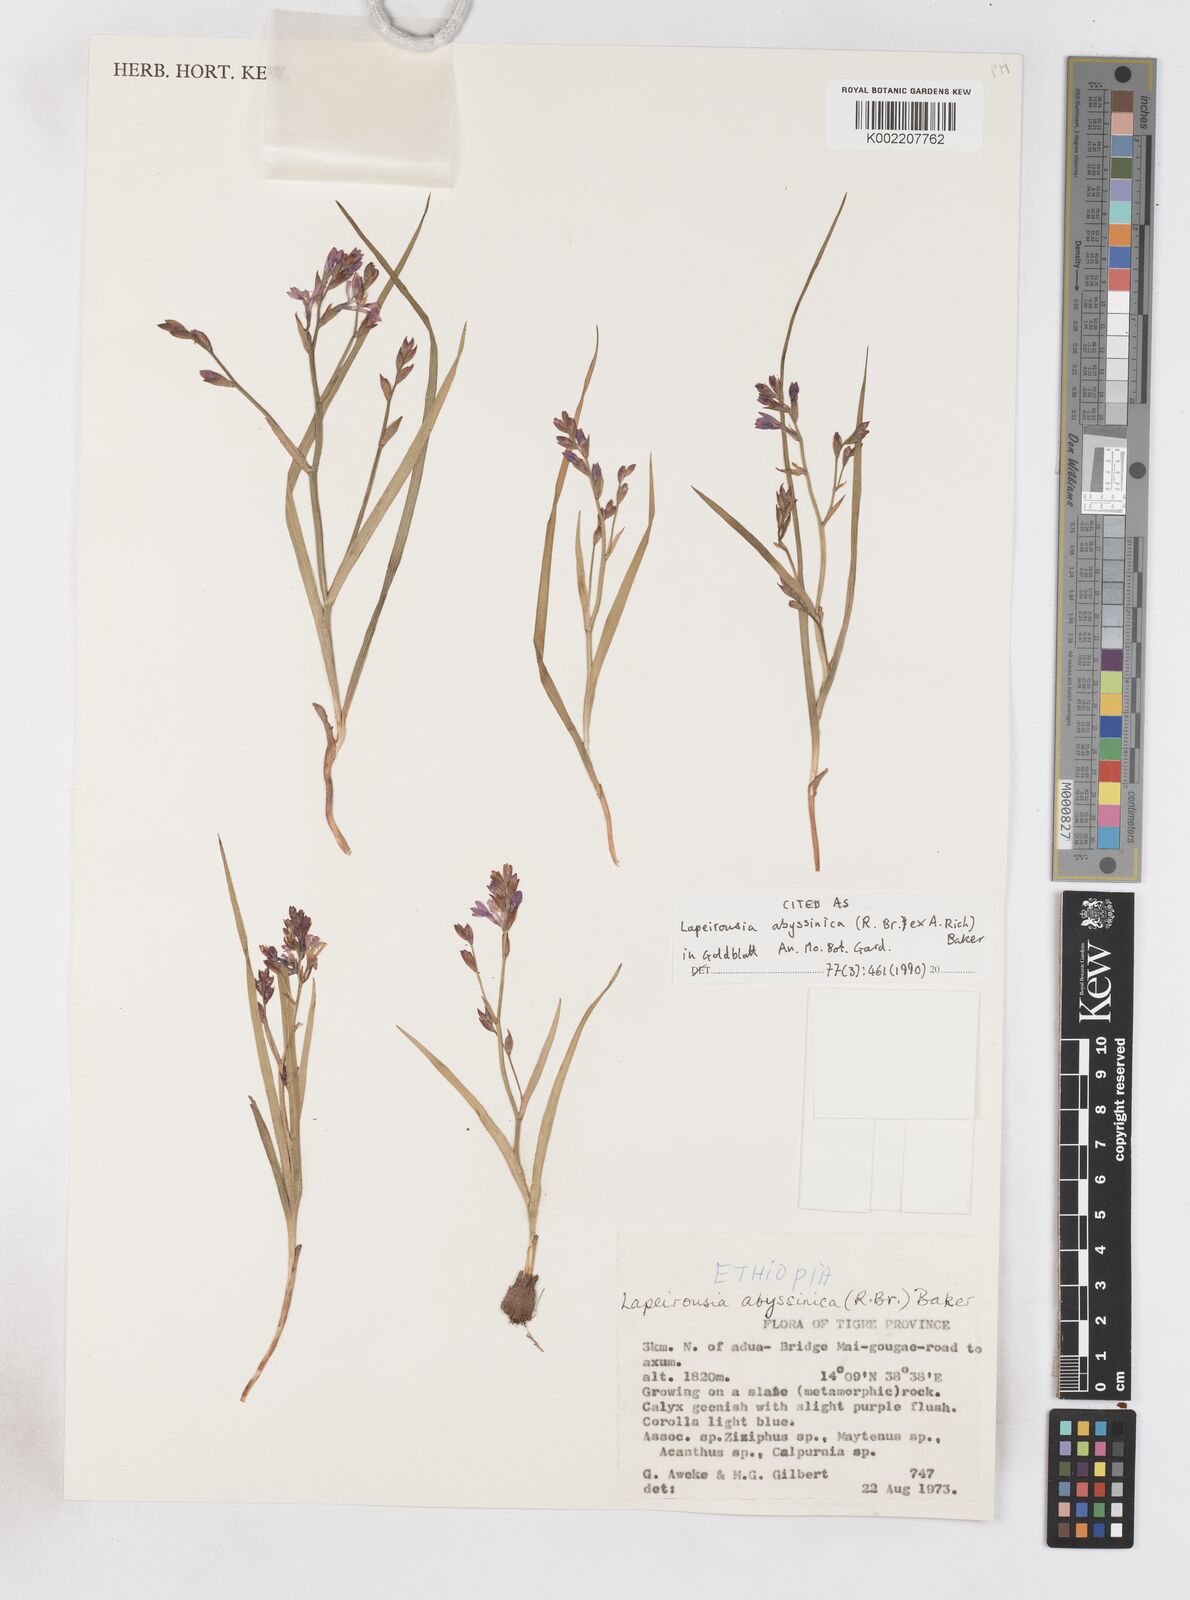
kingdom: Plantae
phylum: Tracheophyta
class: Liliopsida
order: Asparagales
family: Iridaceae
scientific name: Iridaceae
